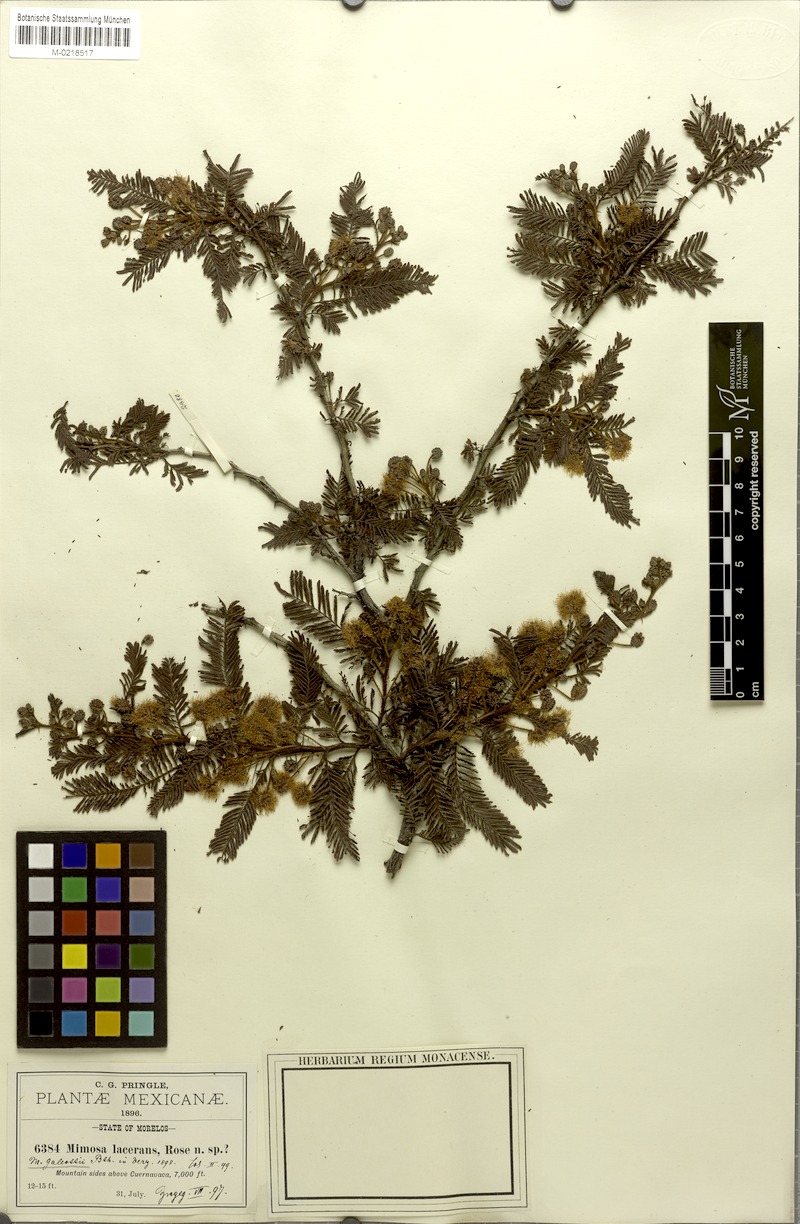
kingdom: Plantae
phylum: Tracheophyta
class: Magnoliopsida
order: Fabales
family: Fabaceae
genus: Mimosa
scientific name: Mimosa lacerata
